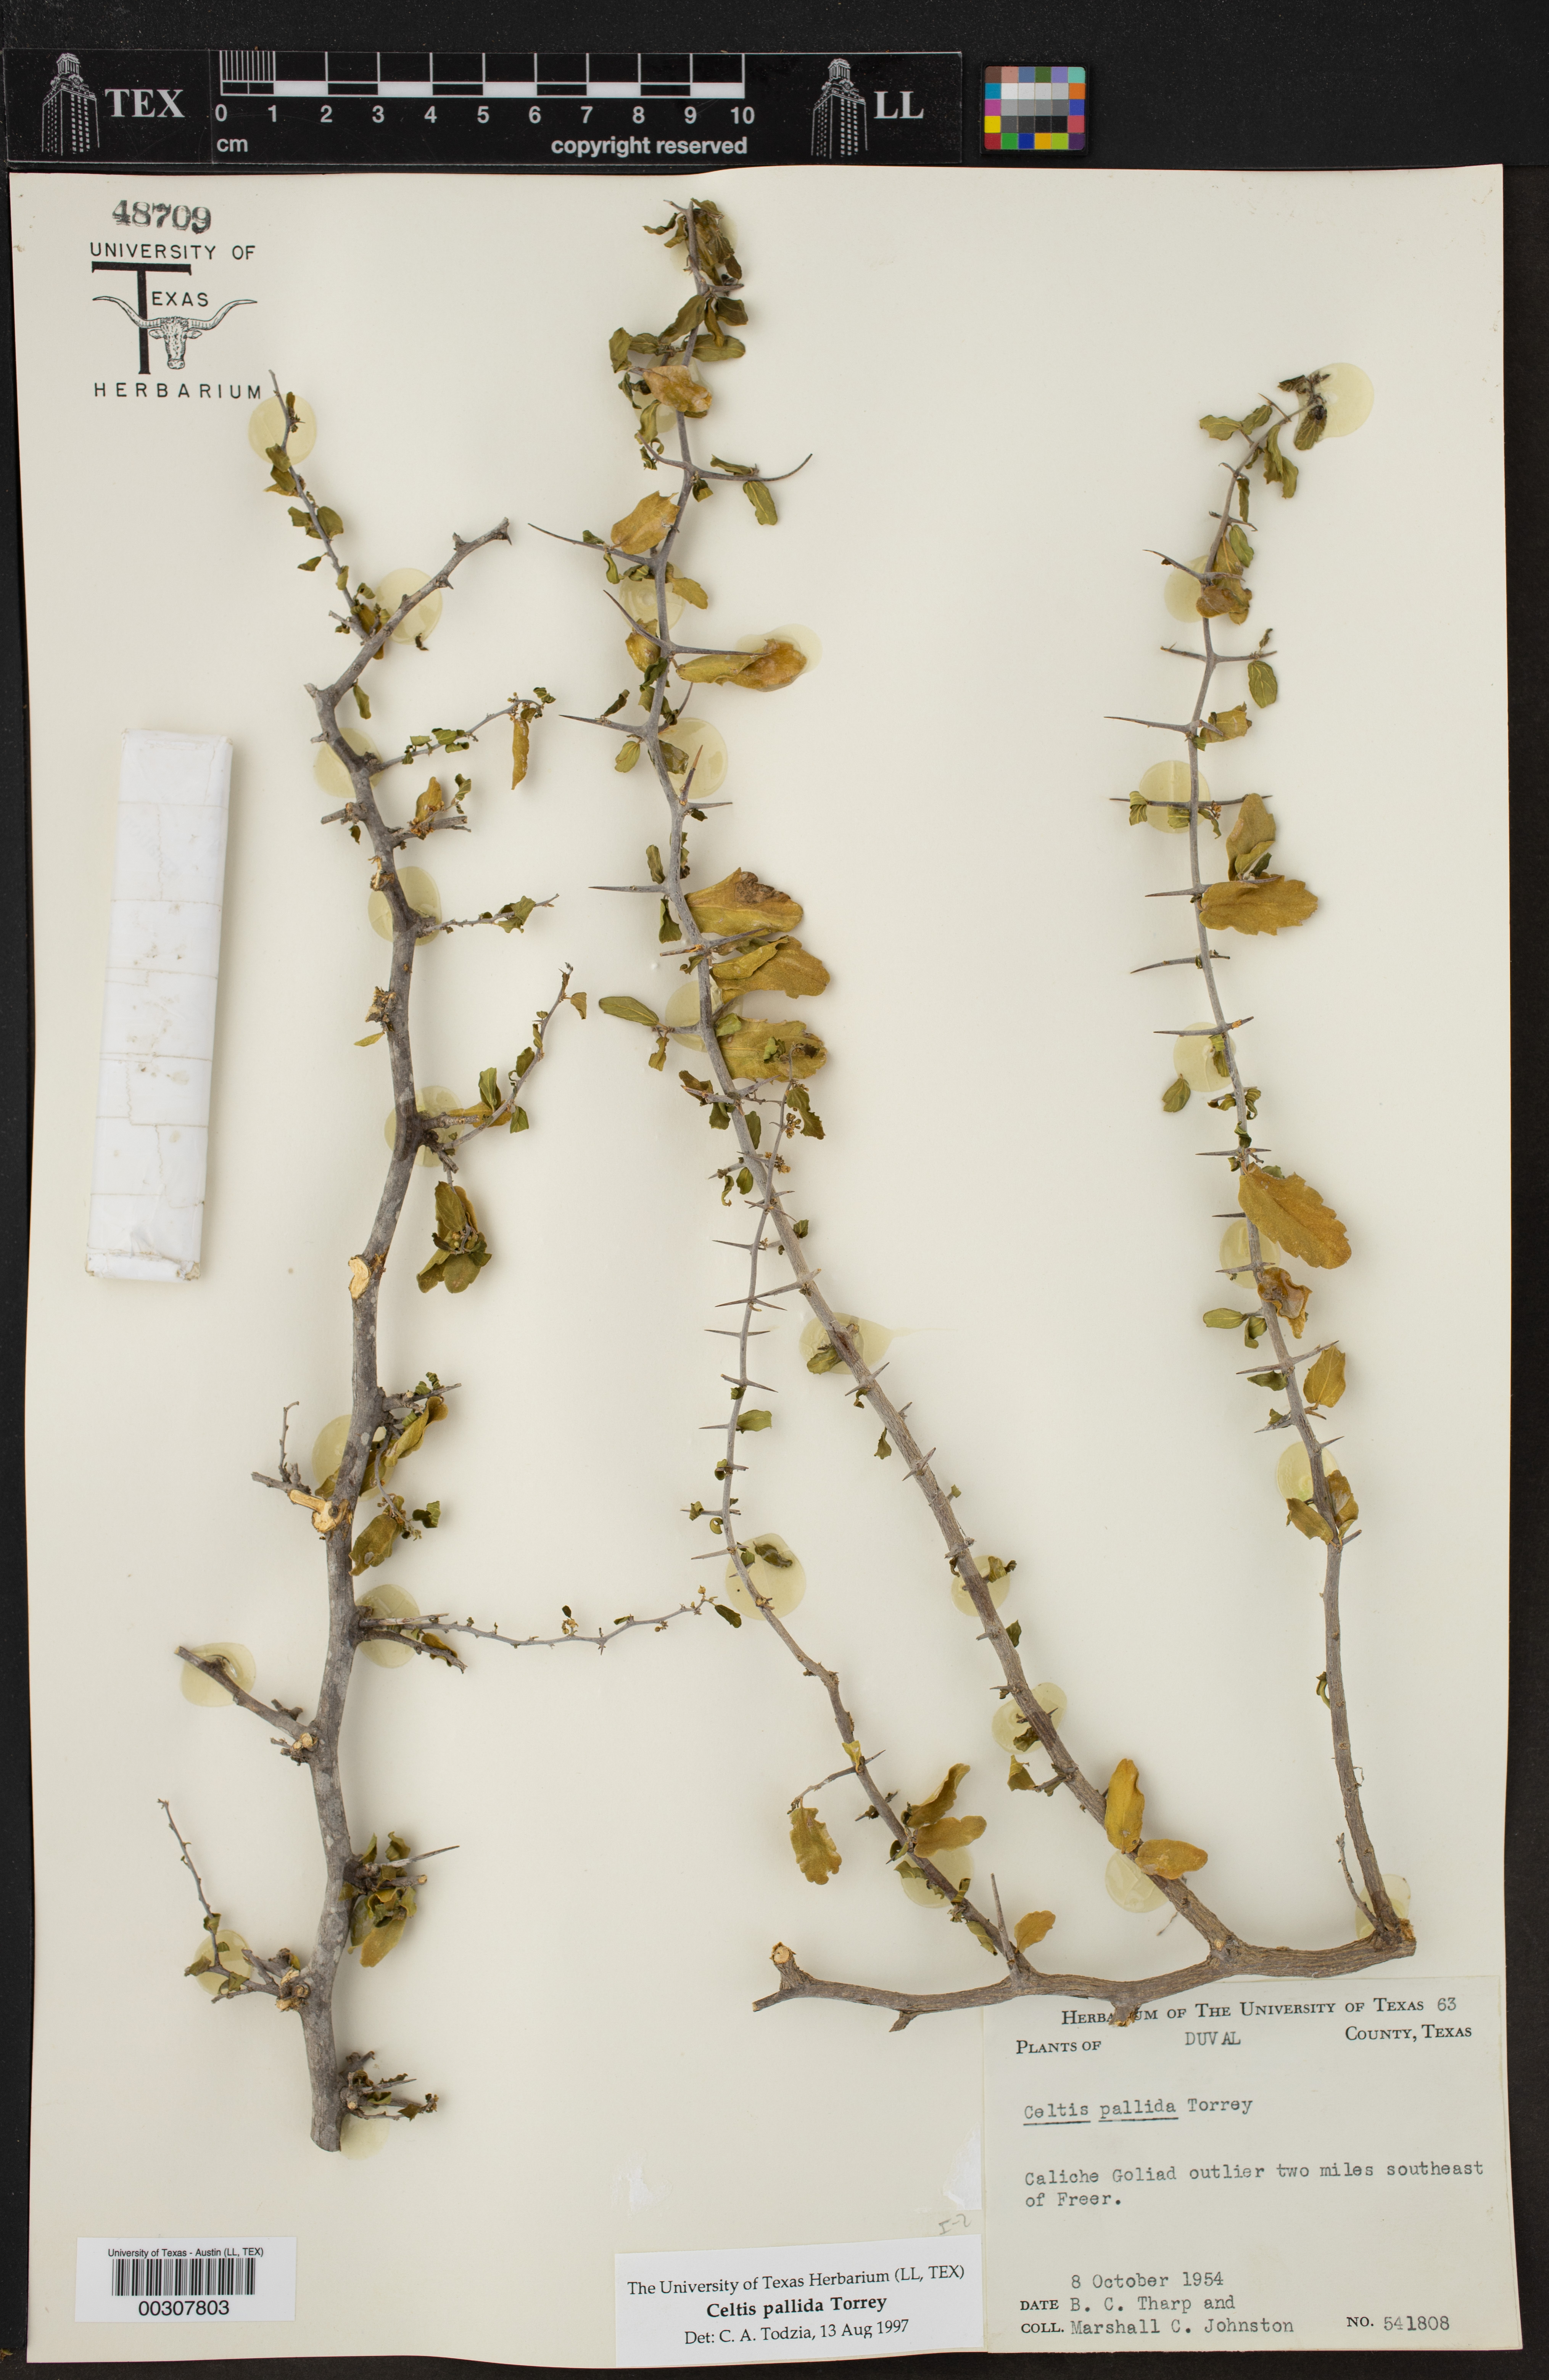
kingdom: Plantae
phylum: Tracheophyta
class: Magnoliopsida
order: Rosales
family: Cannabaceae
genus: Celtis
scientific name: Celtis iguanaea
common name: Iguana hackberry
